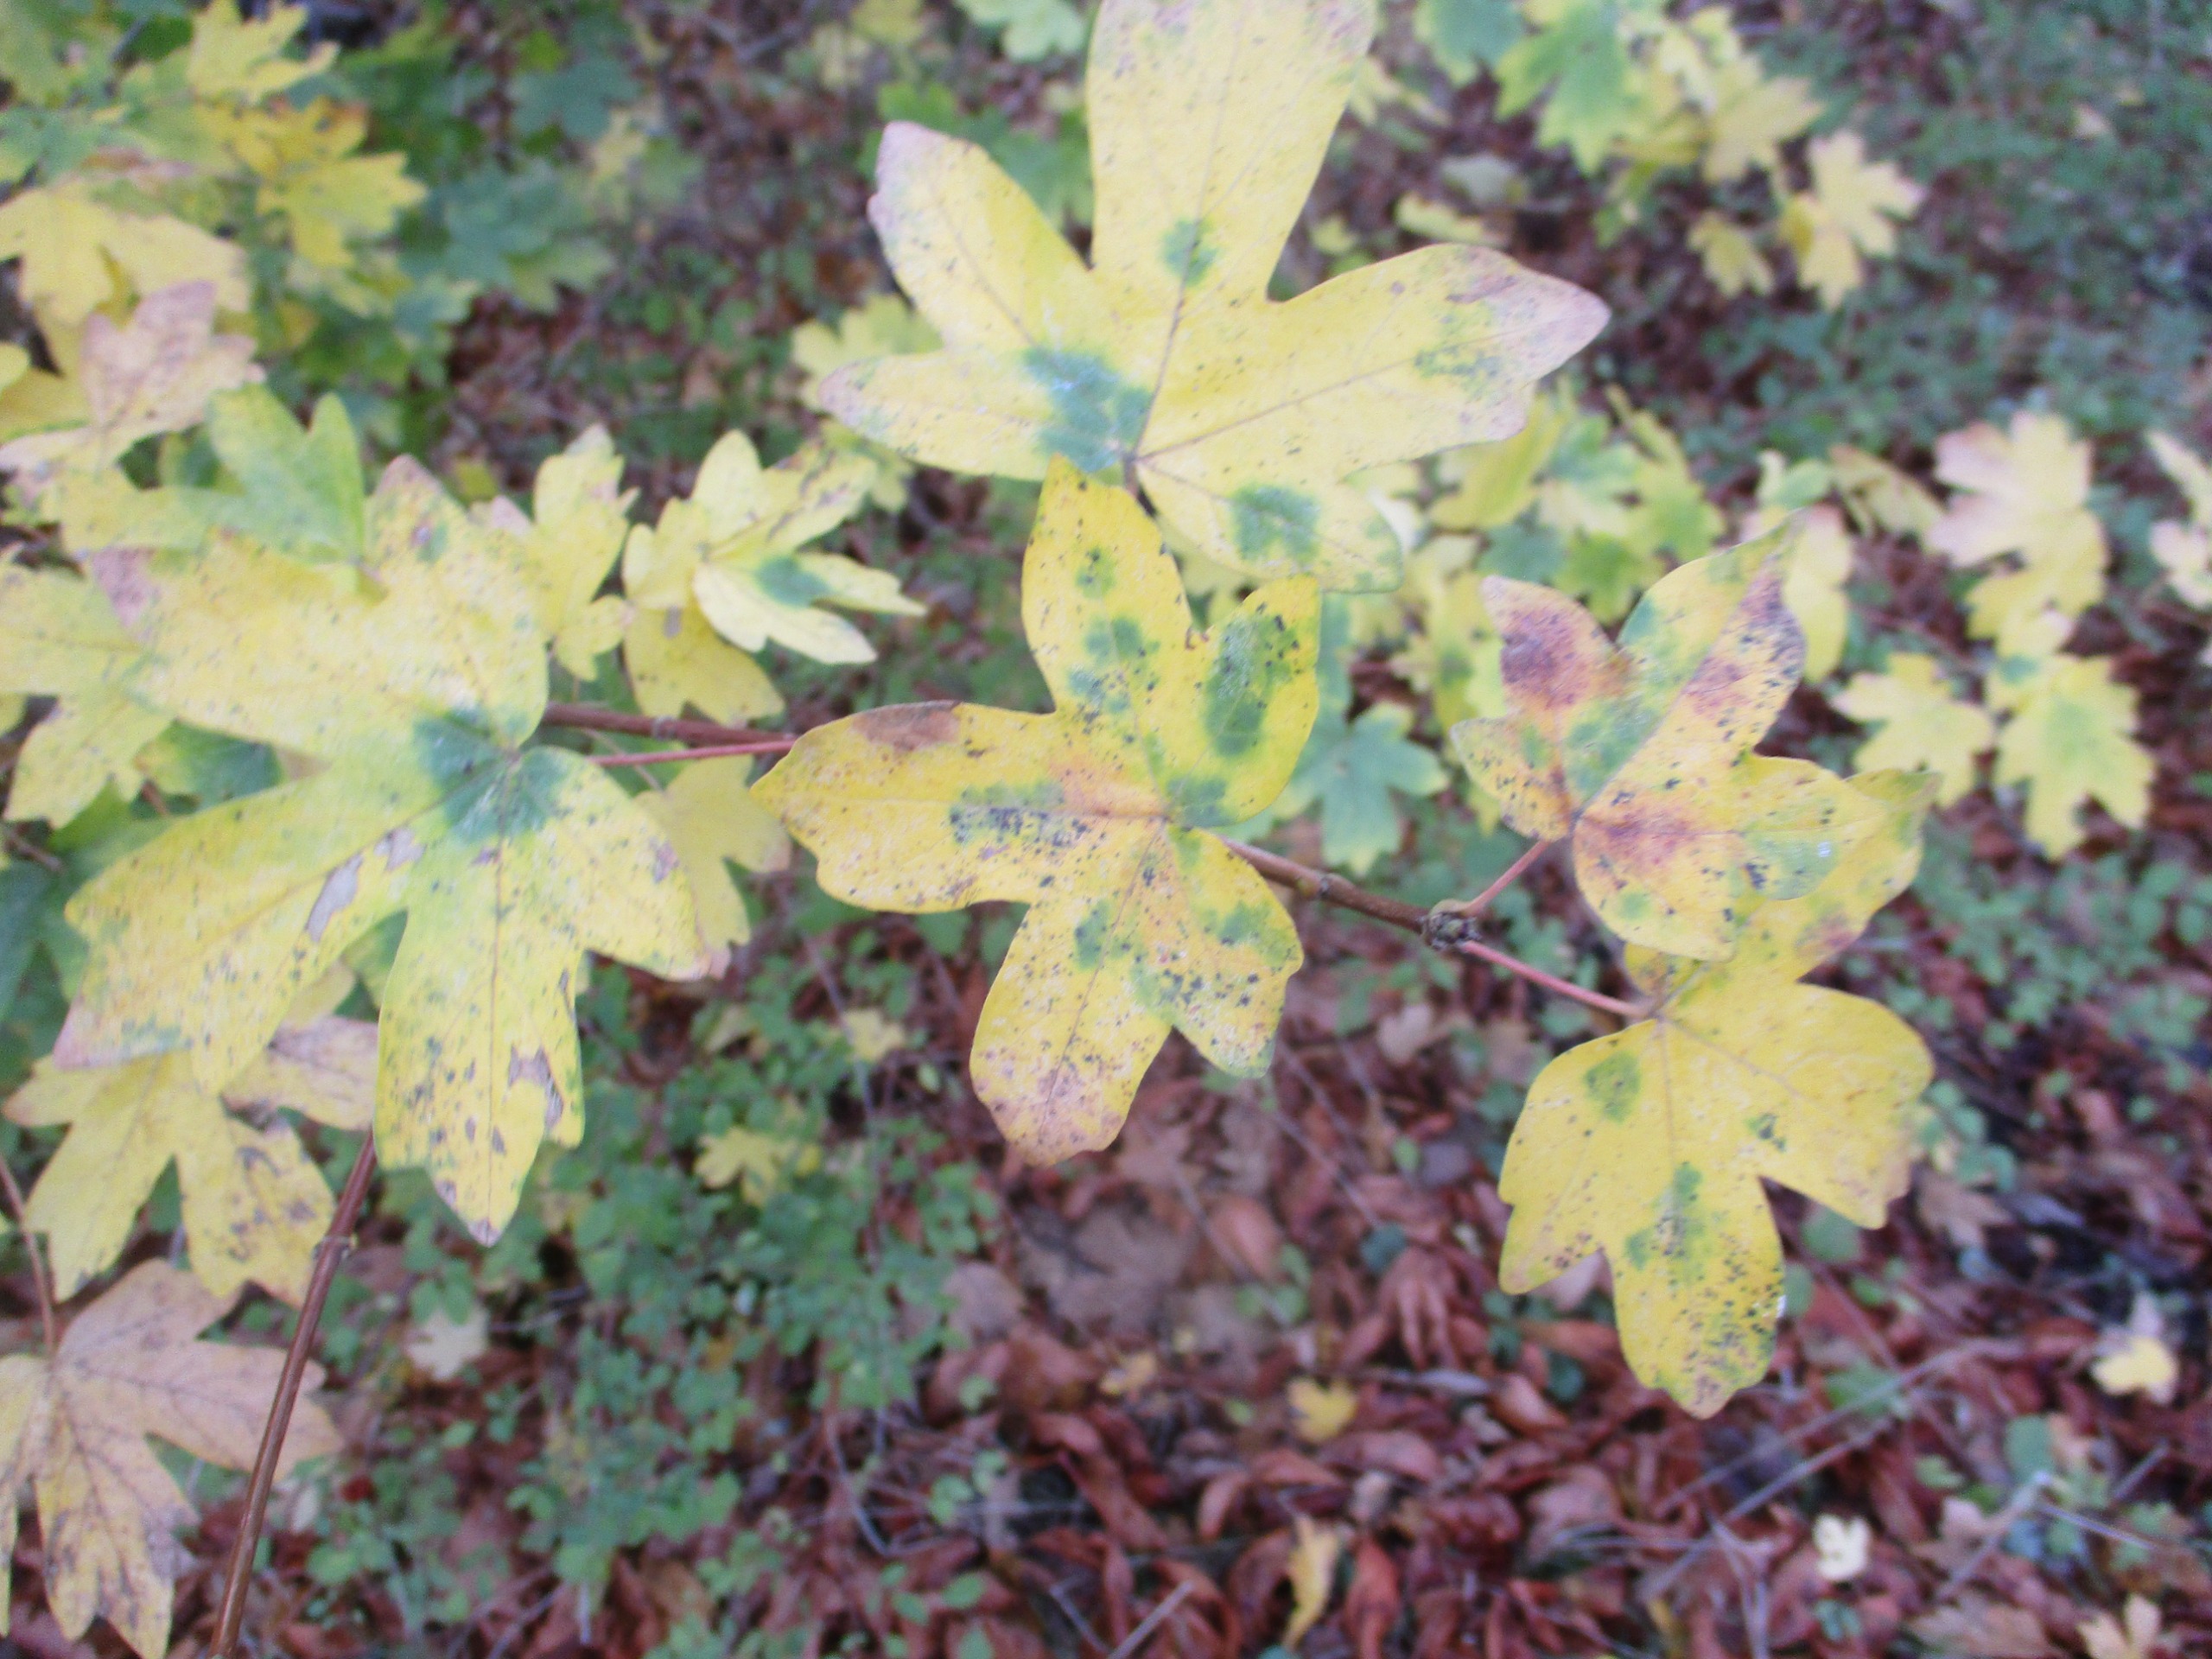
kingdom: Plantae
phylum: Tracheophyta
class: Magnoliopsida
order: Sapindales
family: Sapindaceae
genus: Acer
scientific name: Acer campestre
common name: Navr
